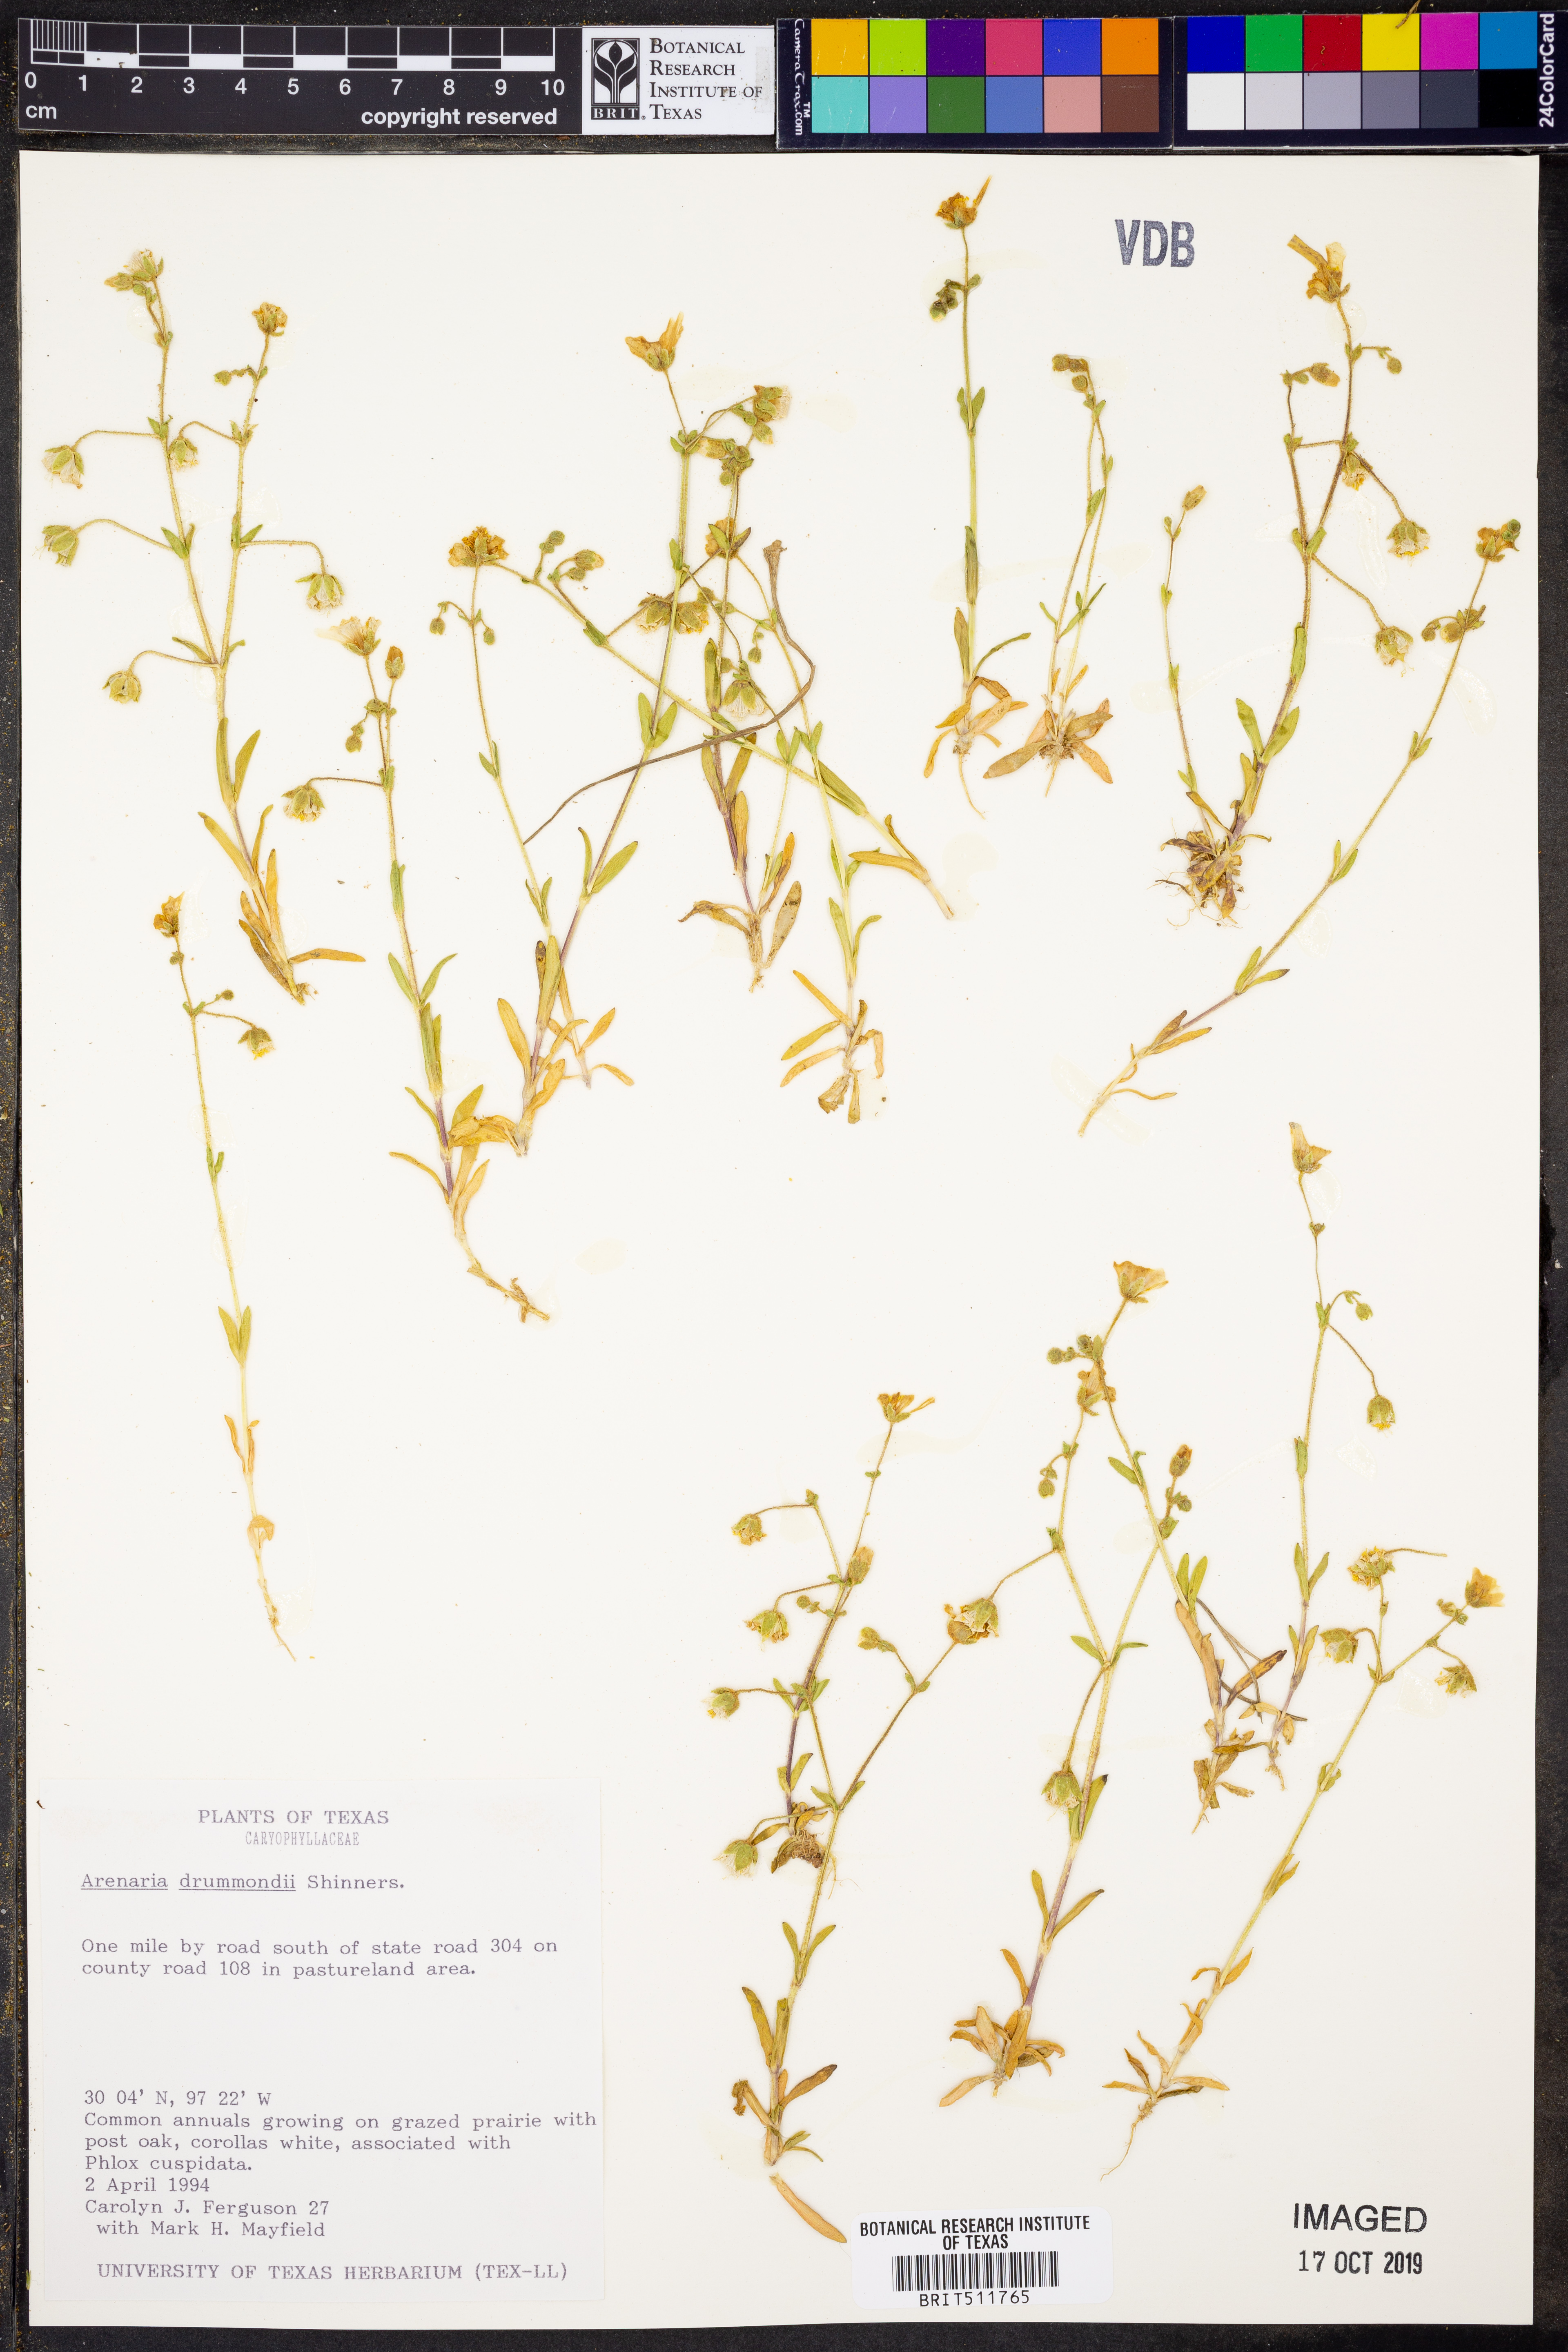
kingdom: Plantae
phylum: Tracheophyta
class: Magnoliopsida
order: Caryophyllales
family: Caryophyllaceae
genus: Geocarpon
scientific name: Geocarpon nuttallii
